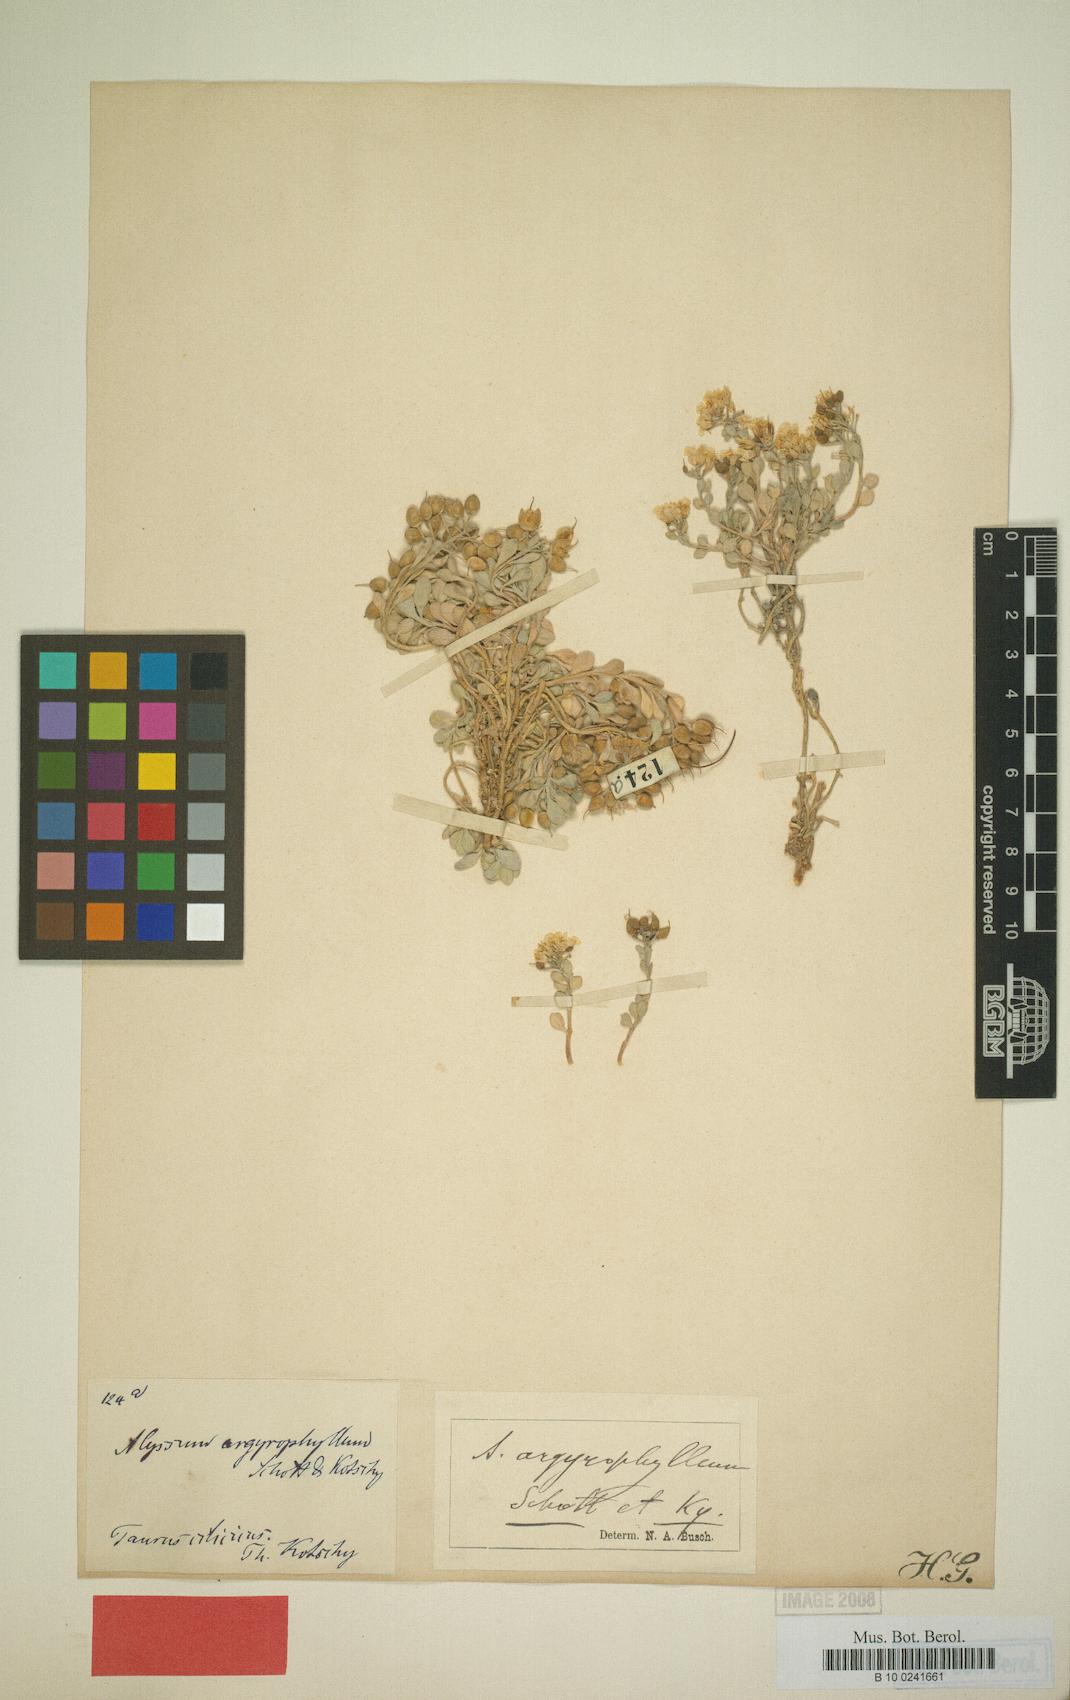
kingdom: Plantae
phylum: Tracheophyta
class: Magnoliopsida
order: Brassicales
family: Brassicaceae
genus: Alyssum
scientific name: Alyssum argyrophyllum
